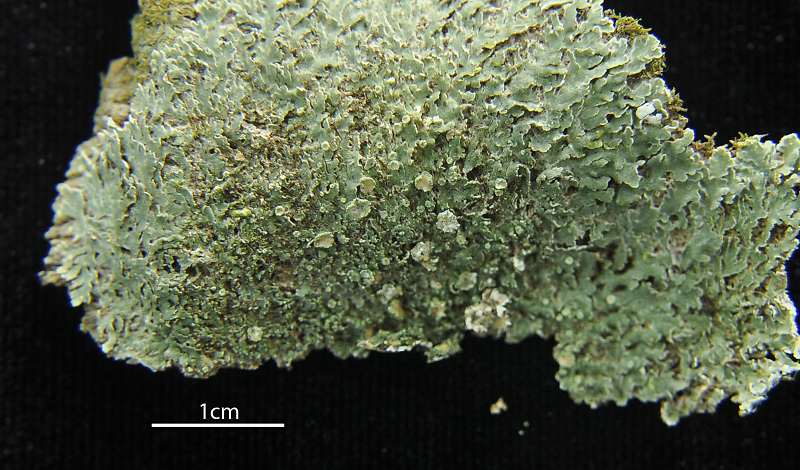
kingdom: Fungi
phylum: Ascomycota
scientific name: Ascomycota
